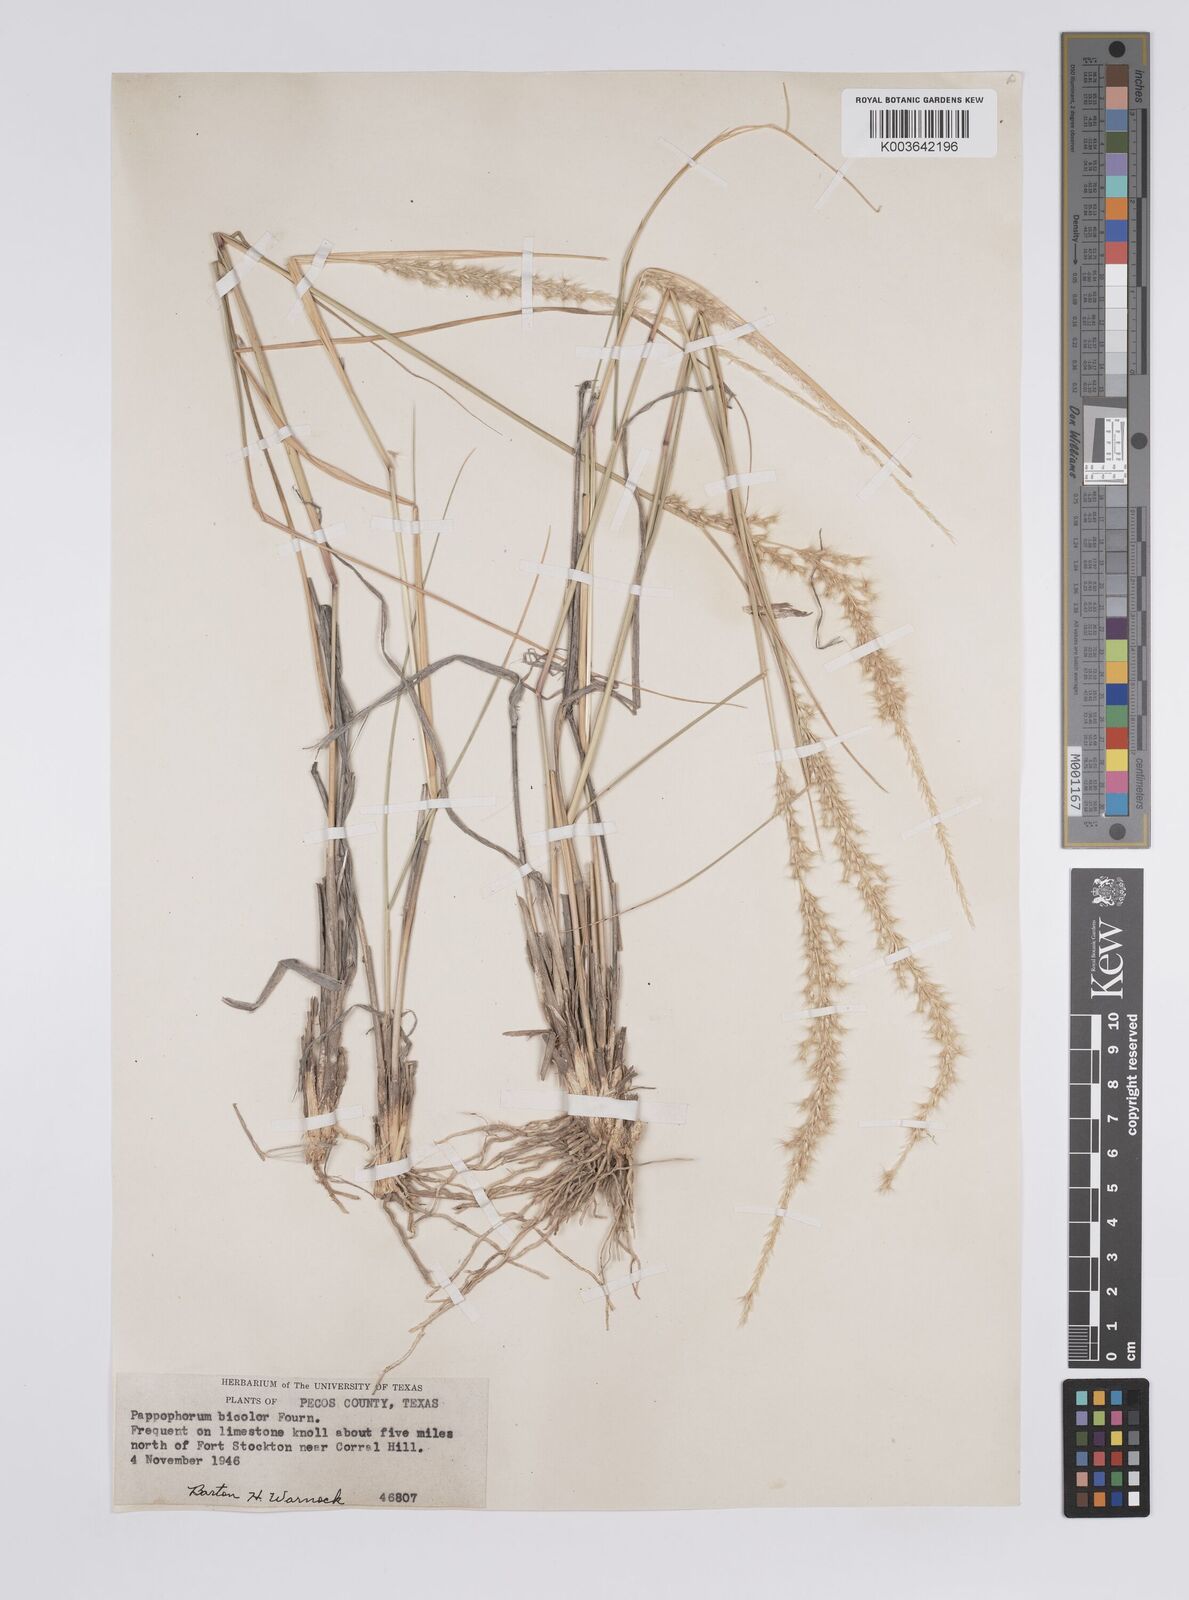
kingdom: Plantae
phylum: Tracheophyta
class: Liliopsida
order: Poales
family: Poaceae
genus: Pappophorum
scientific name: Pappophorum mucronulatum
